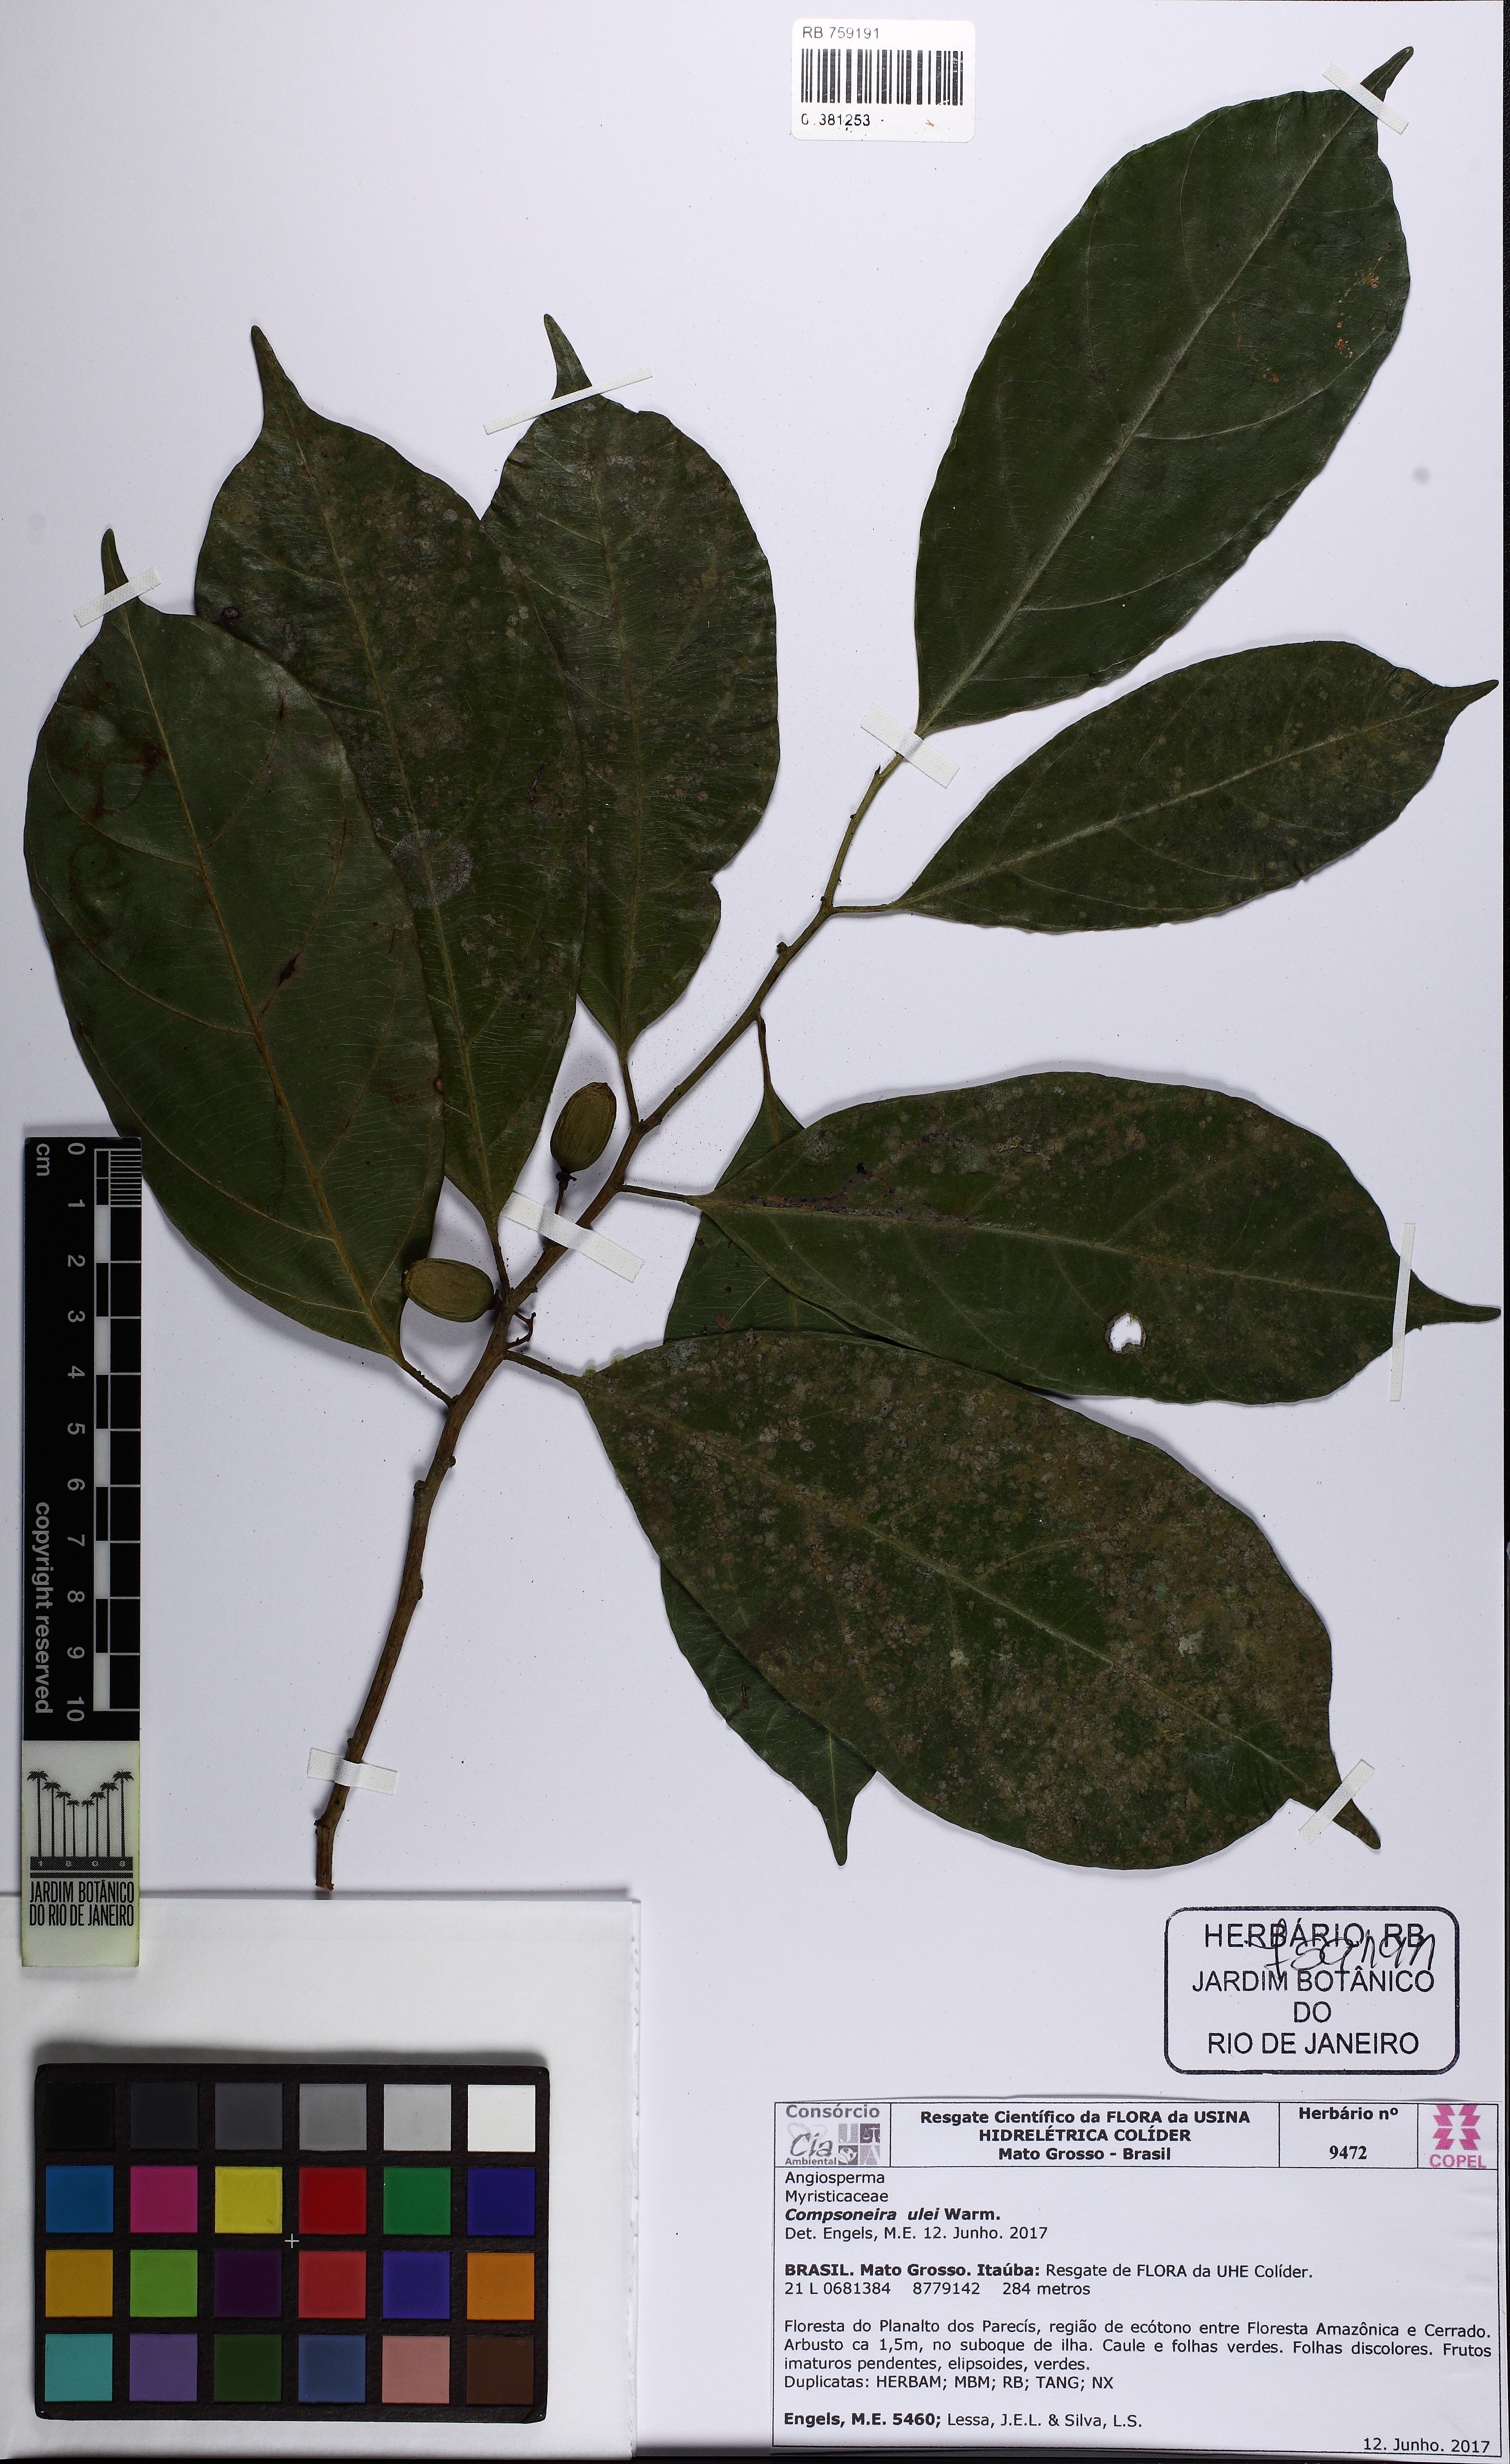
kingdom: Plantae
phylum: Tracheophyta
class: Magnoliopsida
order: Magnoliales
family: Myristicaceae
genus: Compsoneura
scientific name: Compsoneura ulei
